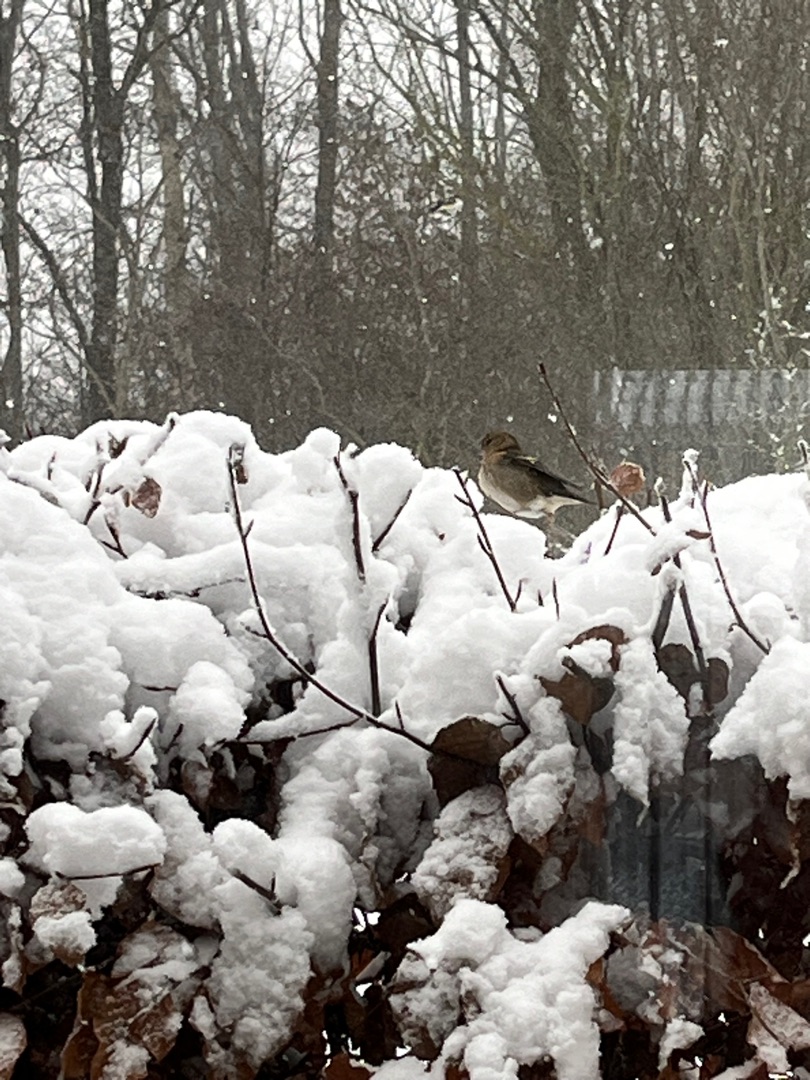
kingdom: Animalia
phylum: Chordata
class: Aves
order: Passeriformes
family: Fringillidae
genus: Fringilla
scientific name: Fringilla coelebs
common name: Bogfinke
